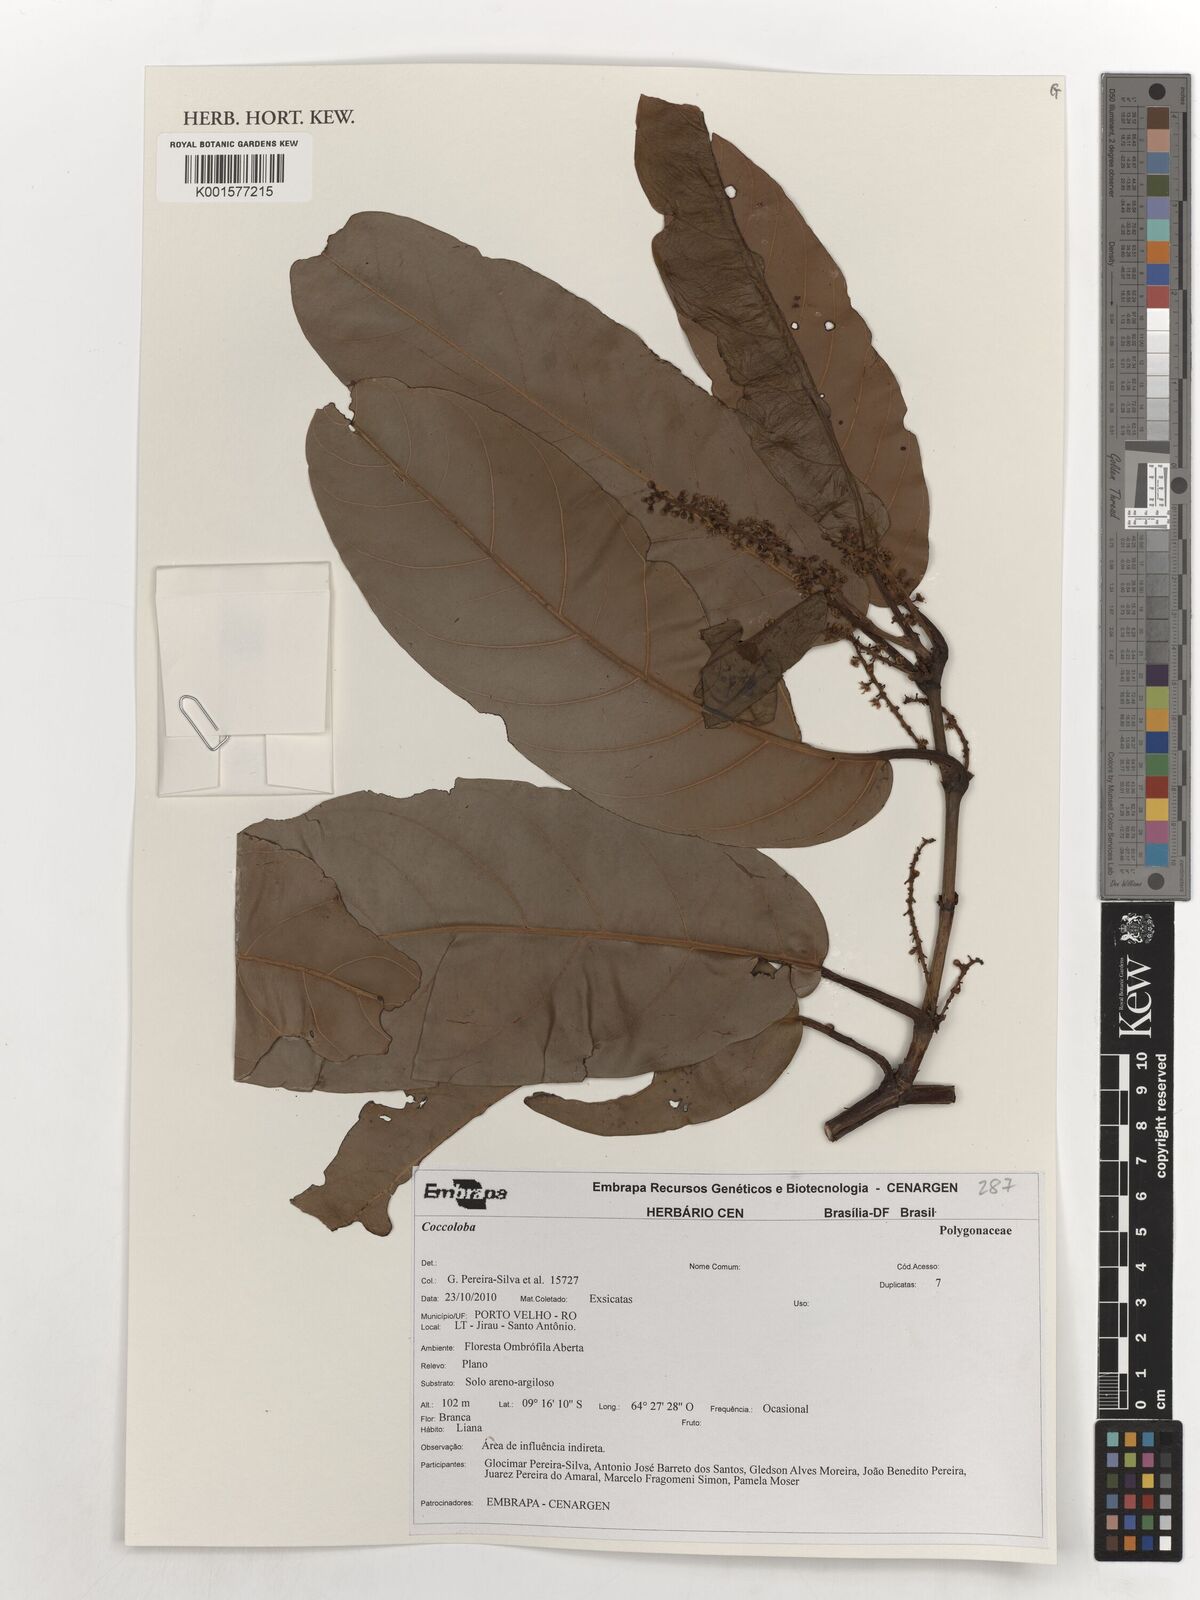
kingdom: Plantae
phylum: Tracheophyta
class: Magnoliopsida
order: Caryophyllales
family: Polygonaceae
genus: Coccoloba
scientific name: Coccoloba
